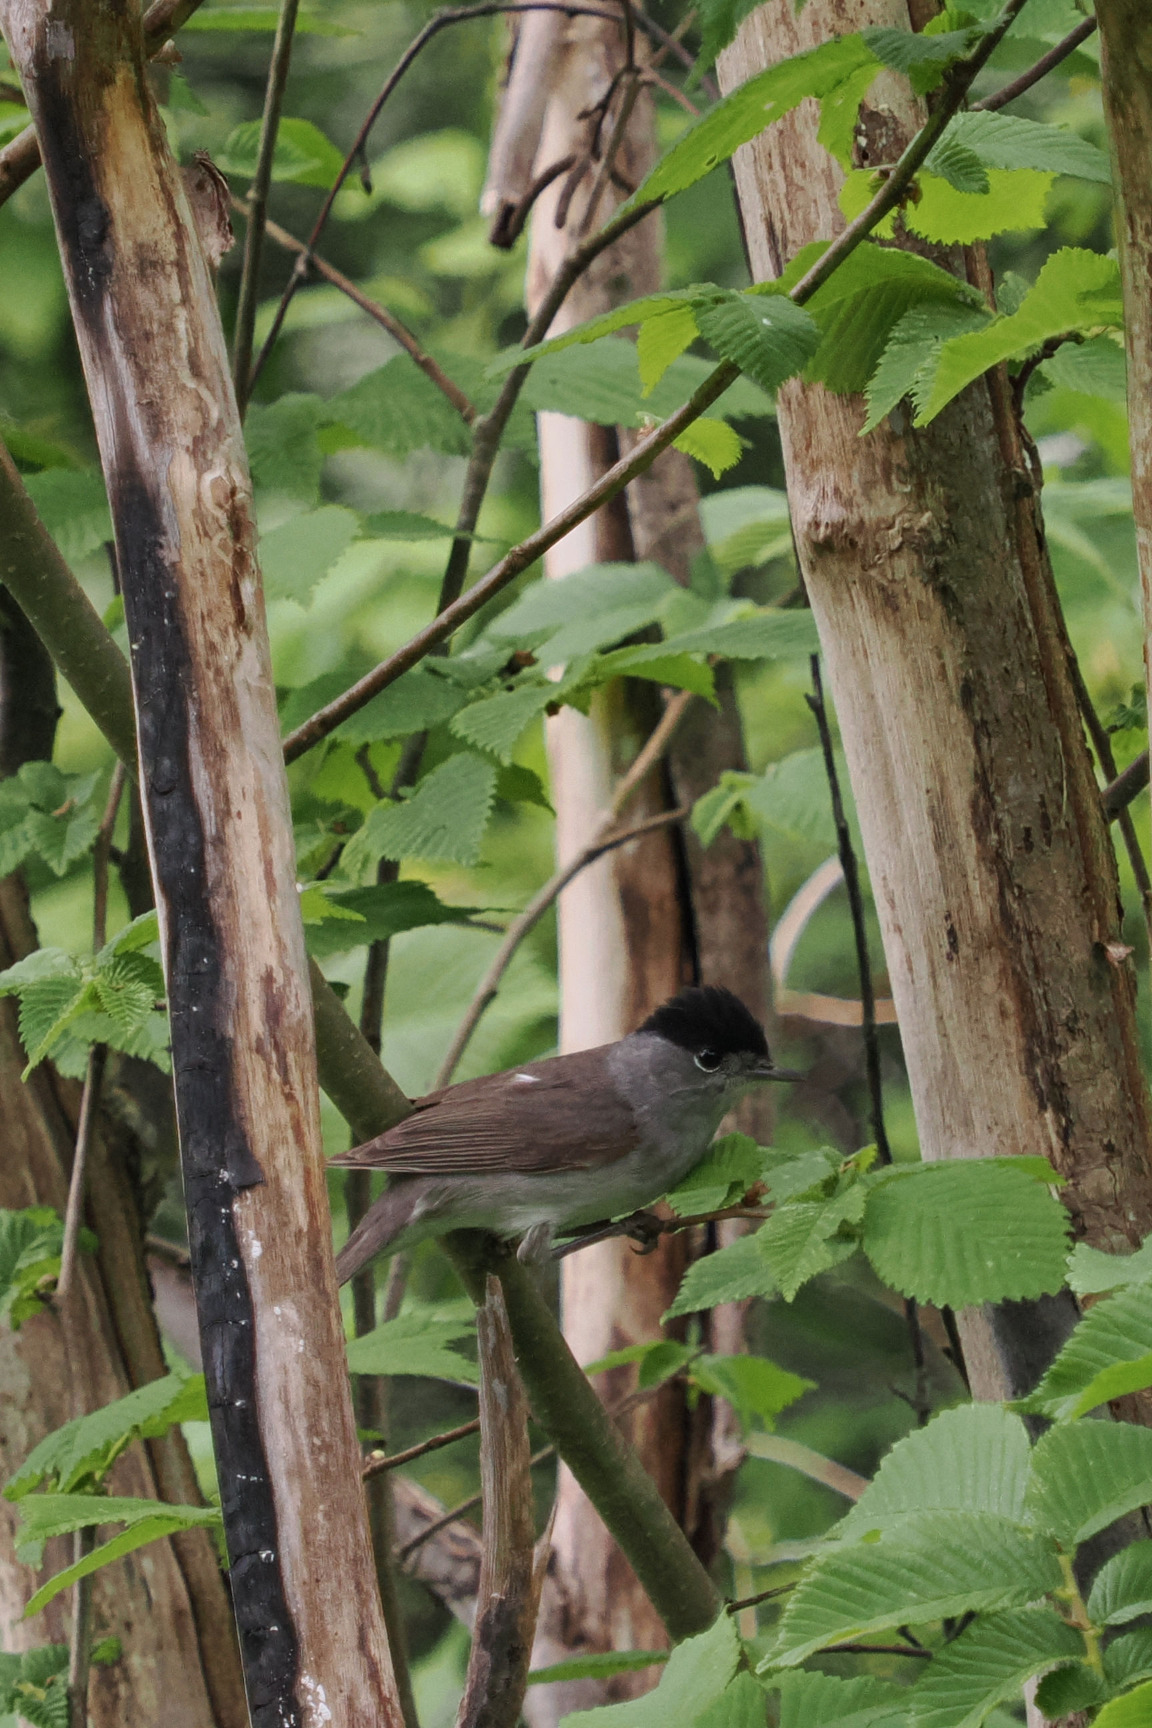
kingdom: Animalia
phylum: Chordata
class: Aves
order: Passeriformes
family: Sylviidae
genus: Sylvia
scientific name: Sylvia atricapilla
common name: Munk
